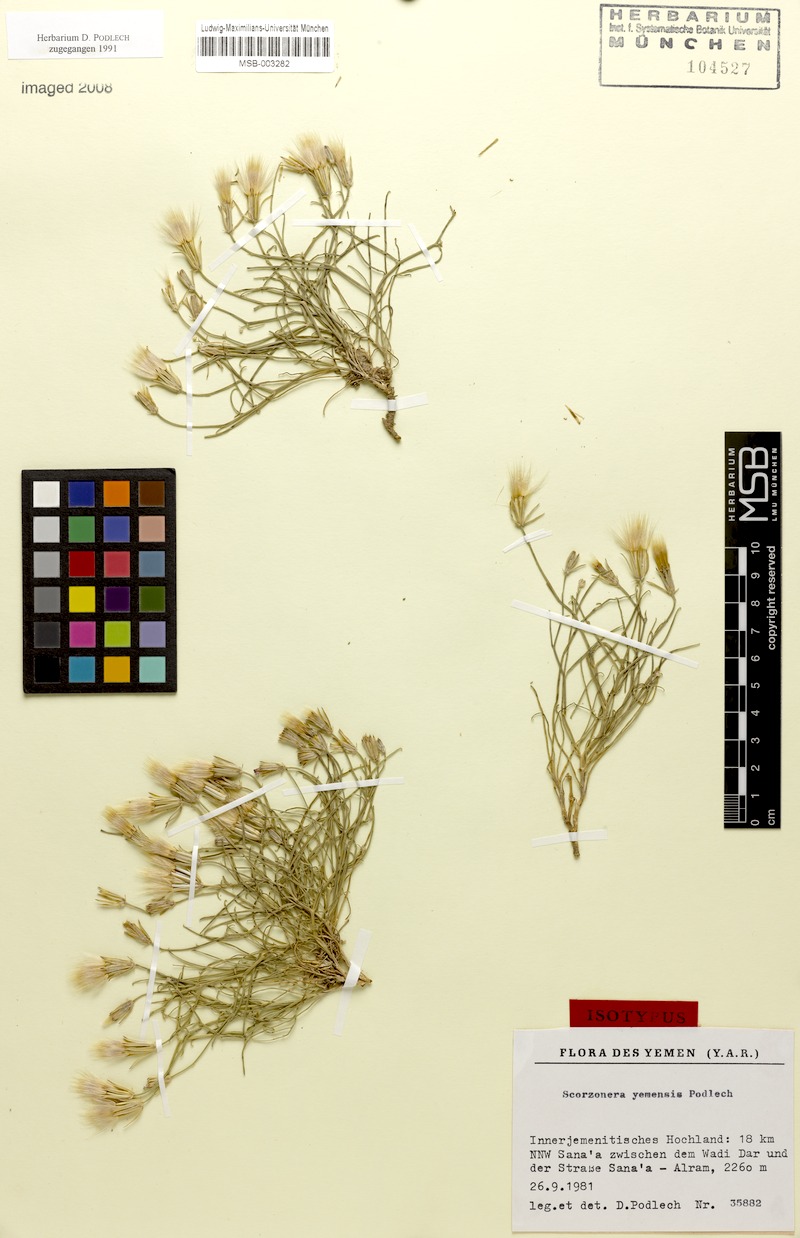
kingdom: Plantae
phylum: Tracheophyta
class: Magnoliopsida
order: Asterales
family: Asteraceae
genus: Ramaliella
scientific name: Ramaliella musilii
